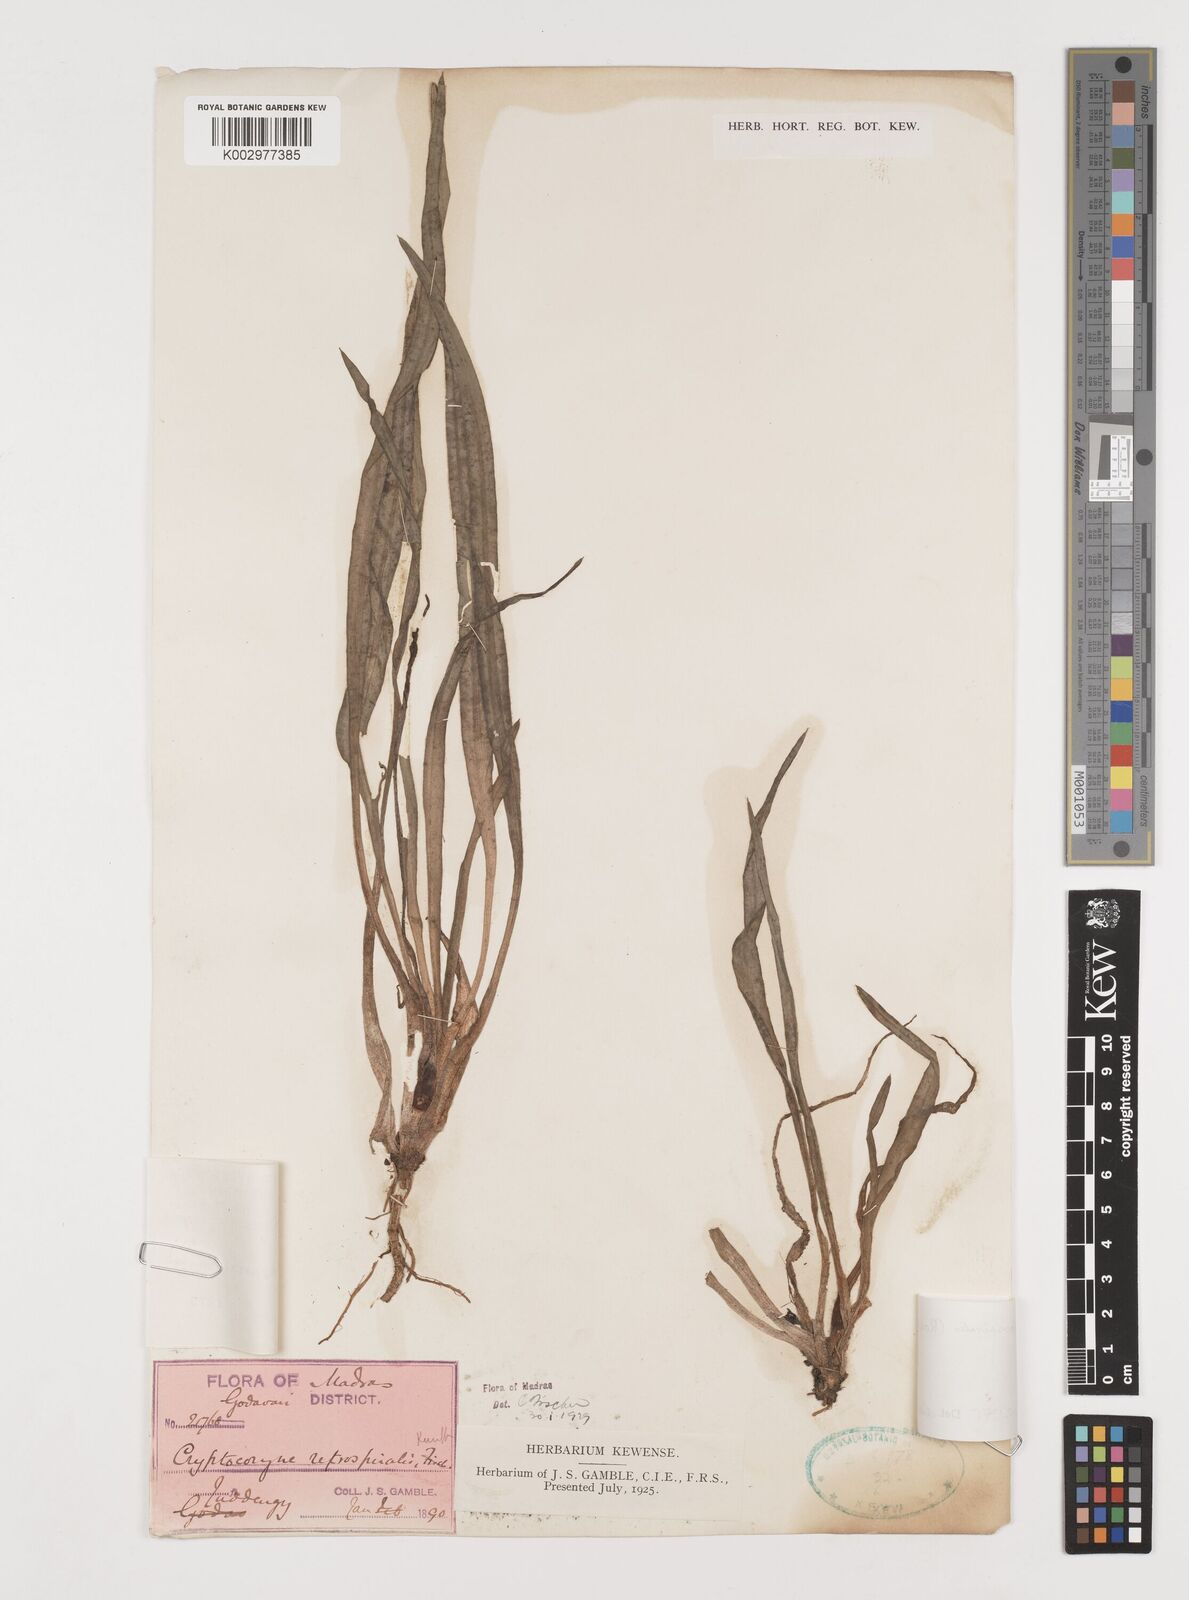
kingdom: Plantae
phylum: Tracheophyta
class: Liliopsida
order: Alismatales
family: Araceae
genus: Cryptocoryne
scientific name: Cryptocoryne retrospiralis
